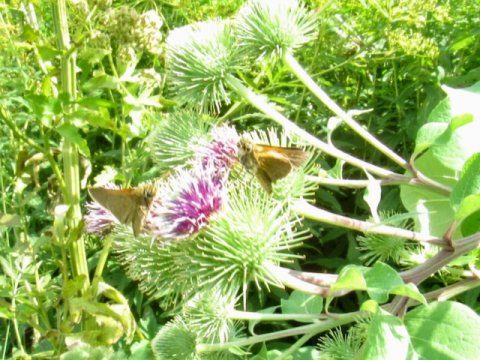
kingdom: Animalia
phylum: Arthropoda
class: Insecta
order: Lepidoptera
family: Hesperiidae
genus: Polites
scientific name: Polites themistocles
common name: Tawny-edged Skipper
